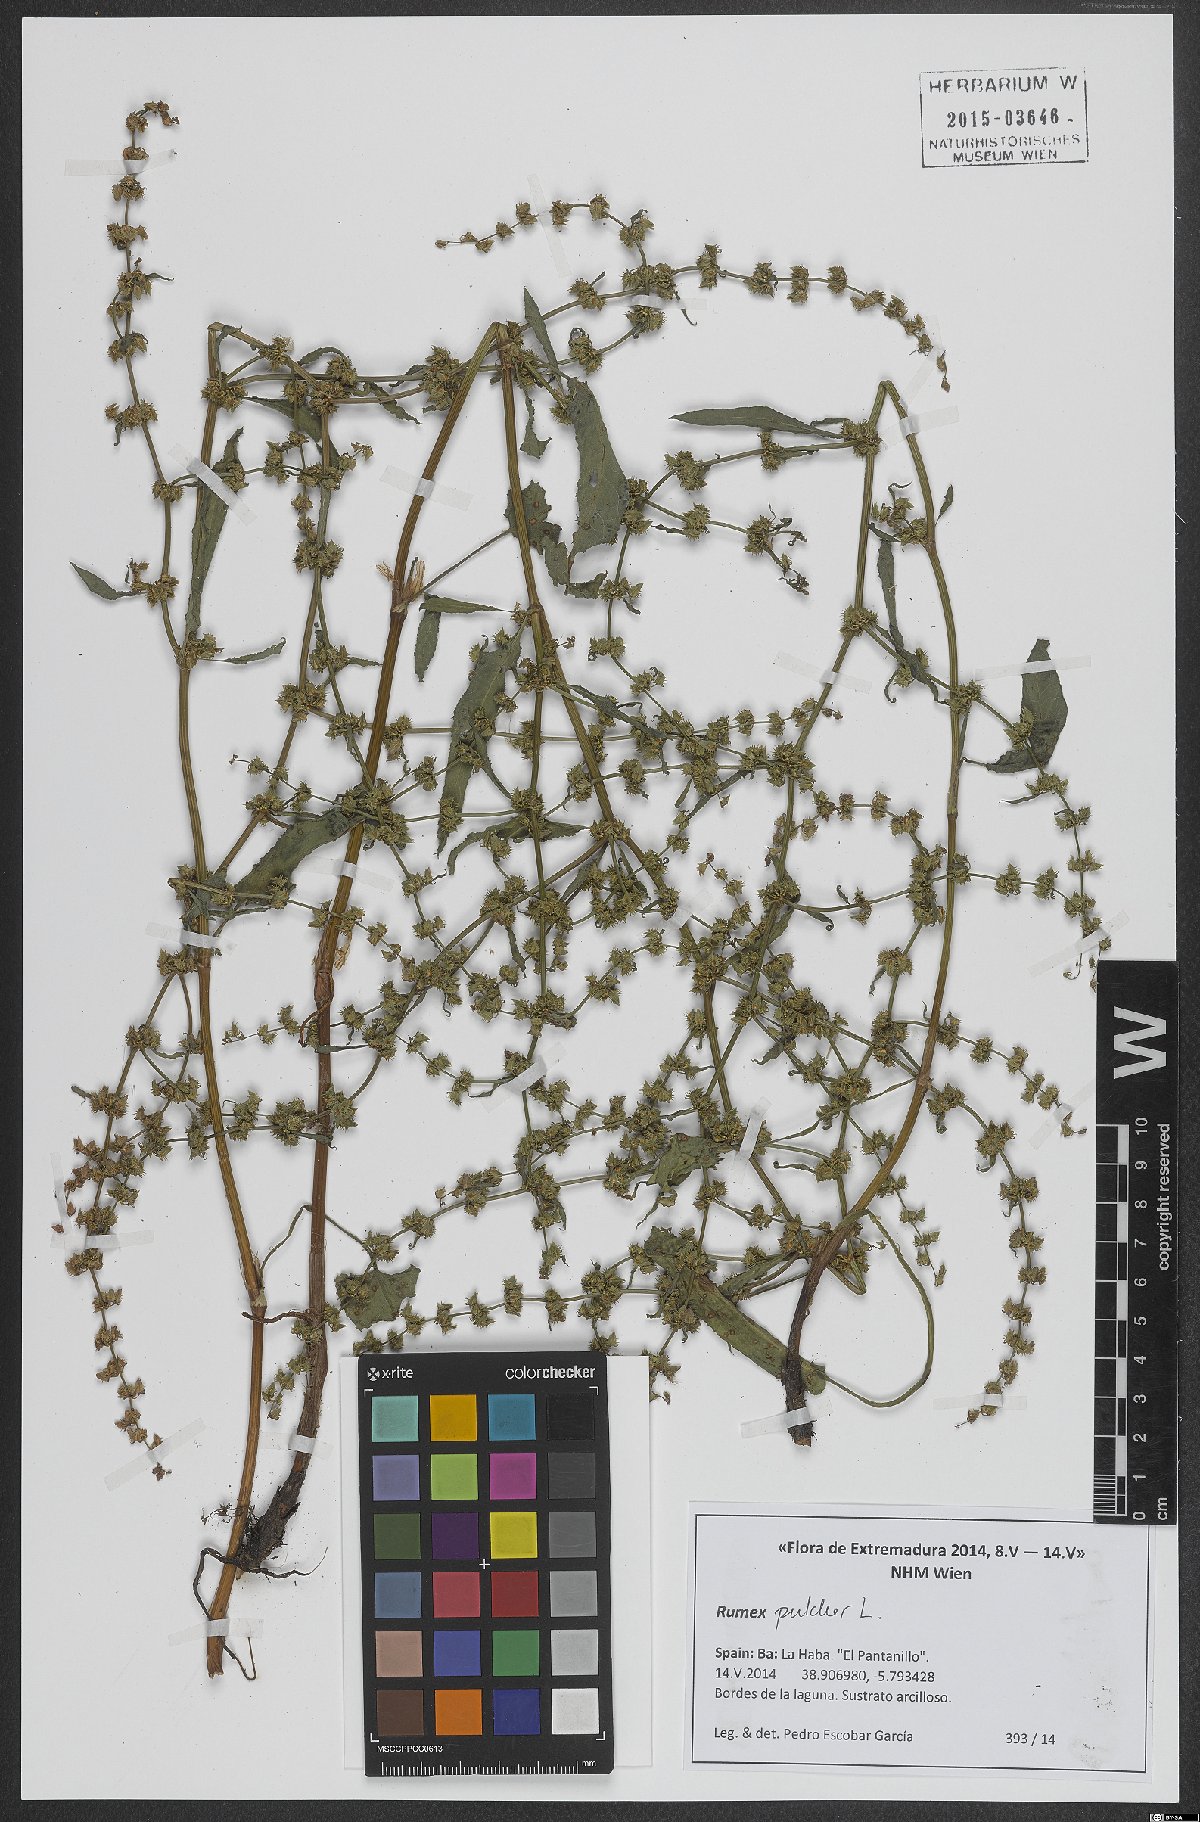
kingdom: Plantae
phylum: Tracheophyta
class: Magnoliopsida
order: Caryophyllales
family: Polygonaceae
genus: Rumex
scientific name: Rumex pulcher
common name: Fiddle dock
